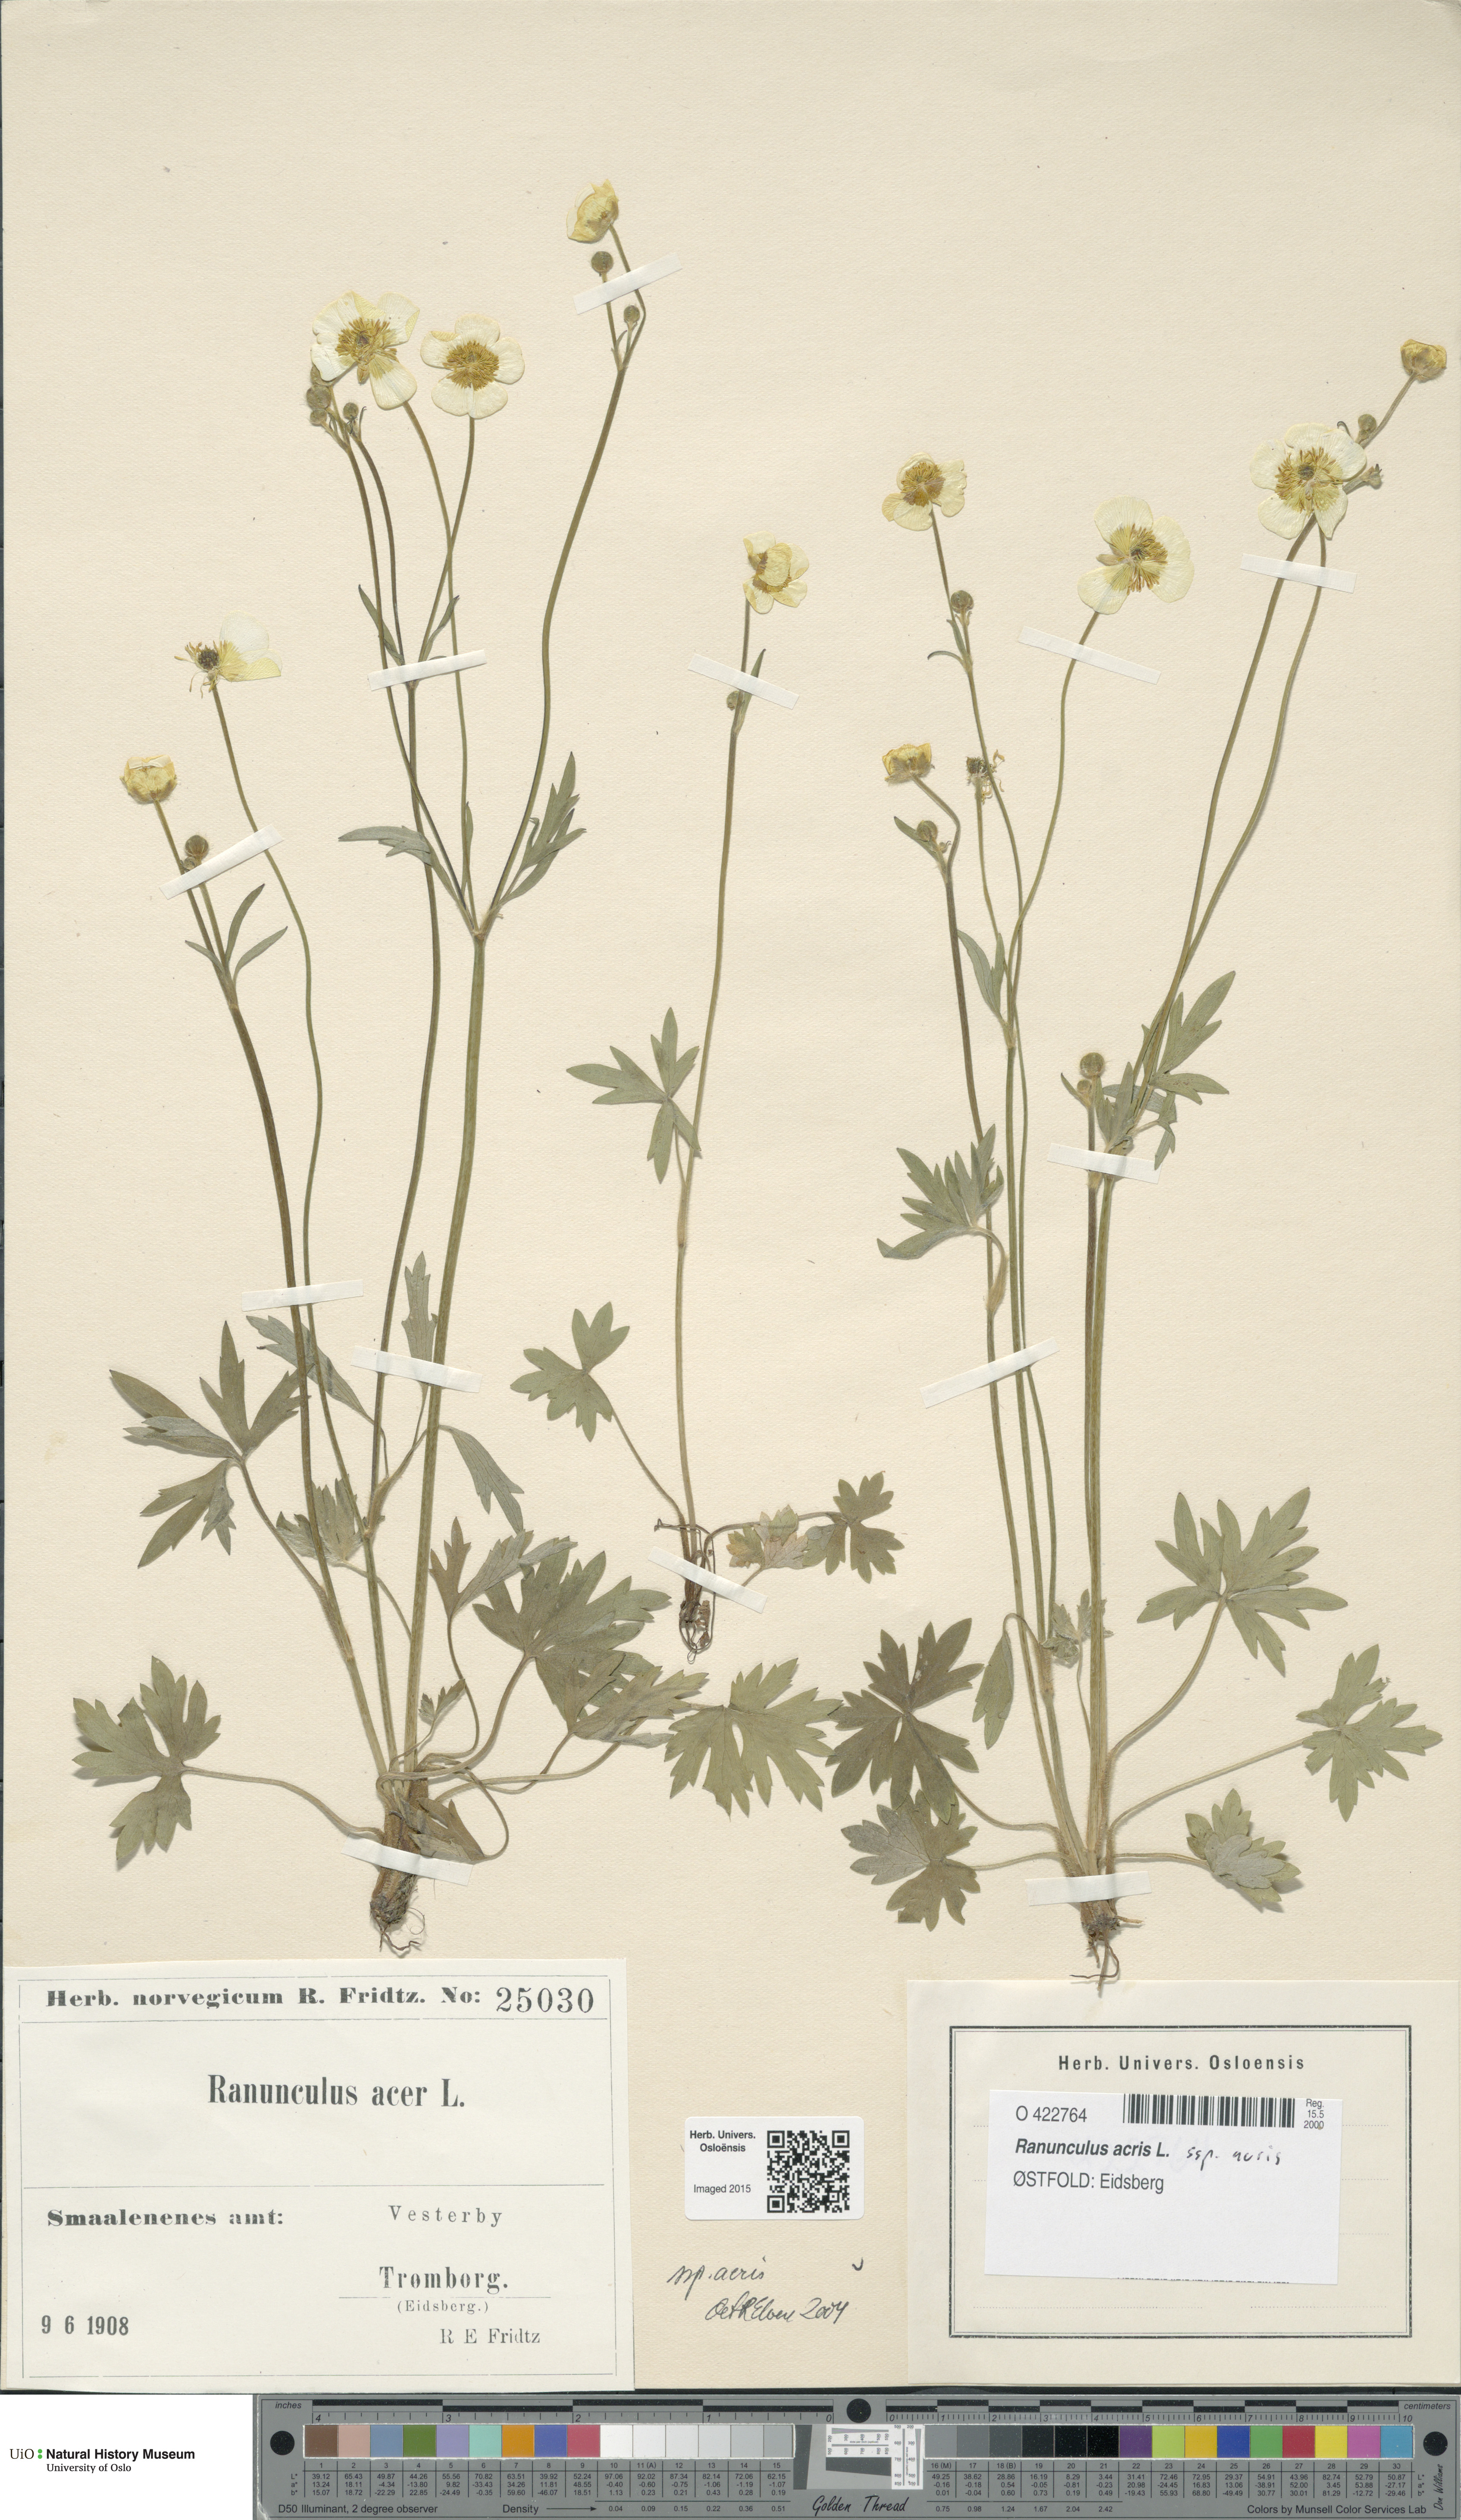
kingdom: Plantae
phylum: Tracheophyta
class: Magnoliopsida
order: Ranunculales
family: Ranunculaceae
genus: Ranunculus
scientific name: Ranunculus acris
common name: Meadow buttercup
